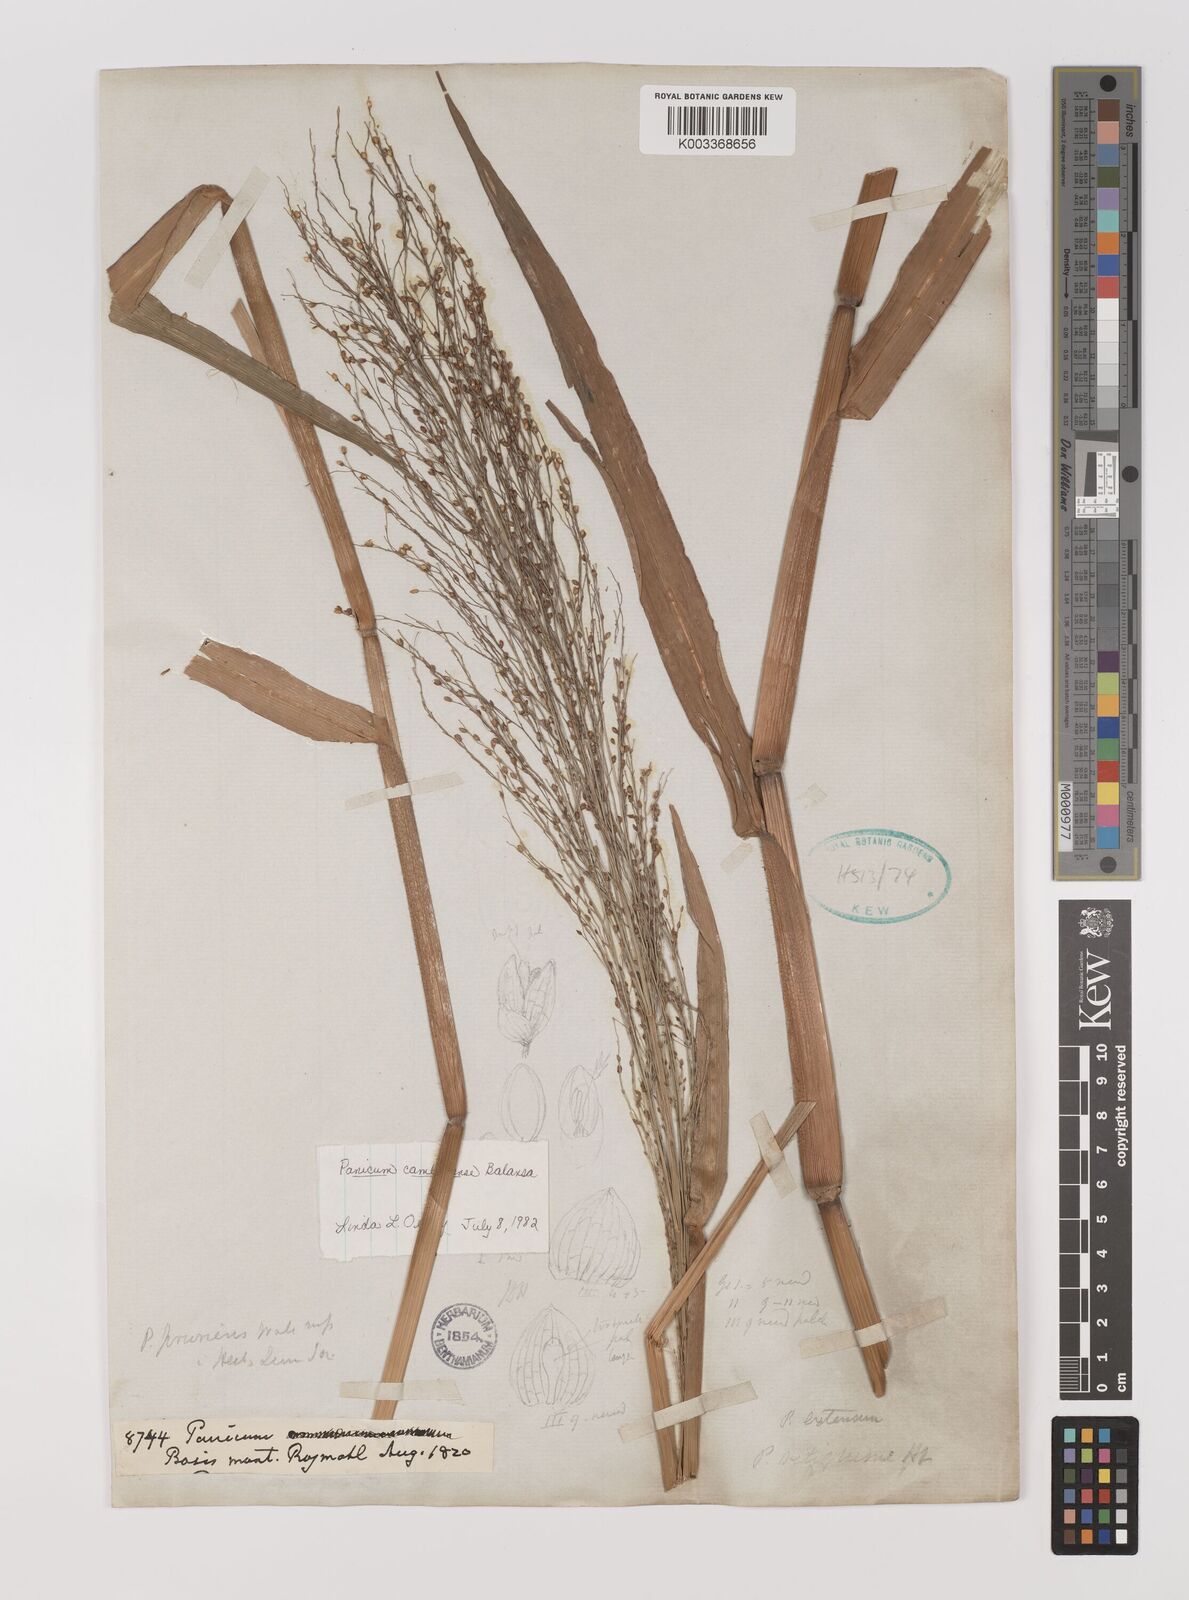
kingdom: Plantae
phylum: Tracheophyta
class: Liliopsida
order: Poales
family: Poaceae
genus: Panicum
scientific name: Panicum luzonense
